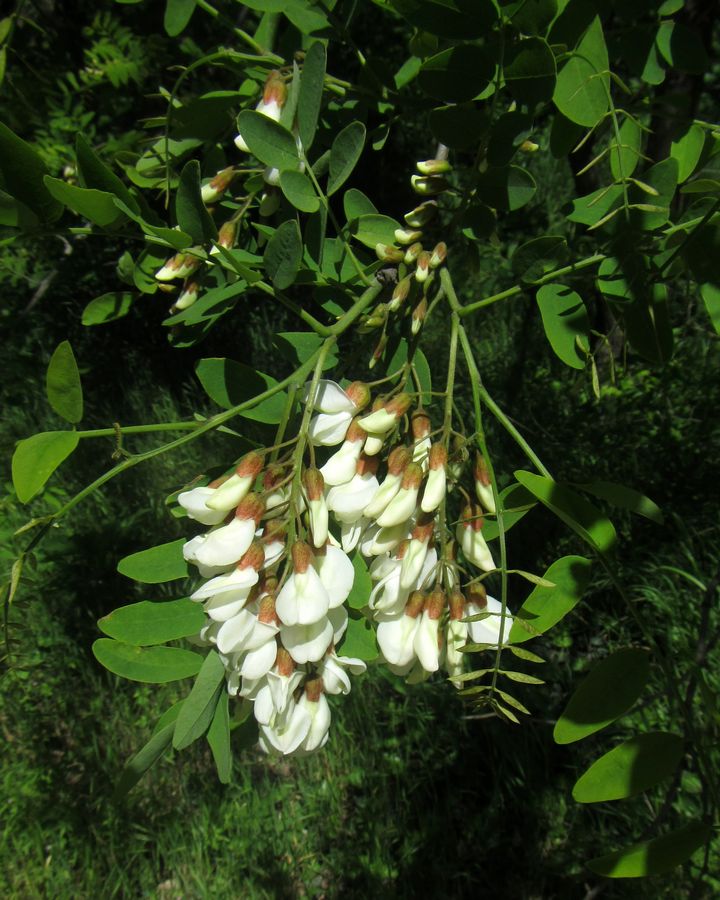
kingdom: Plantae
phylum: Tracheophyta
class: Magnoliopsida
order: Fabales
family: Fabaceae
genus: Robinia
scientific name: Robinia pseudoacacia
